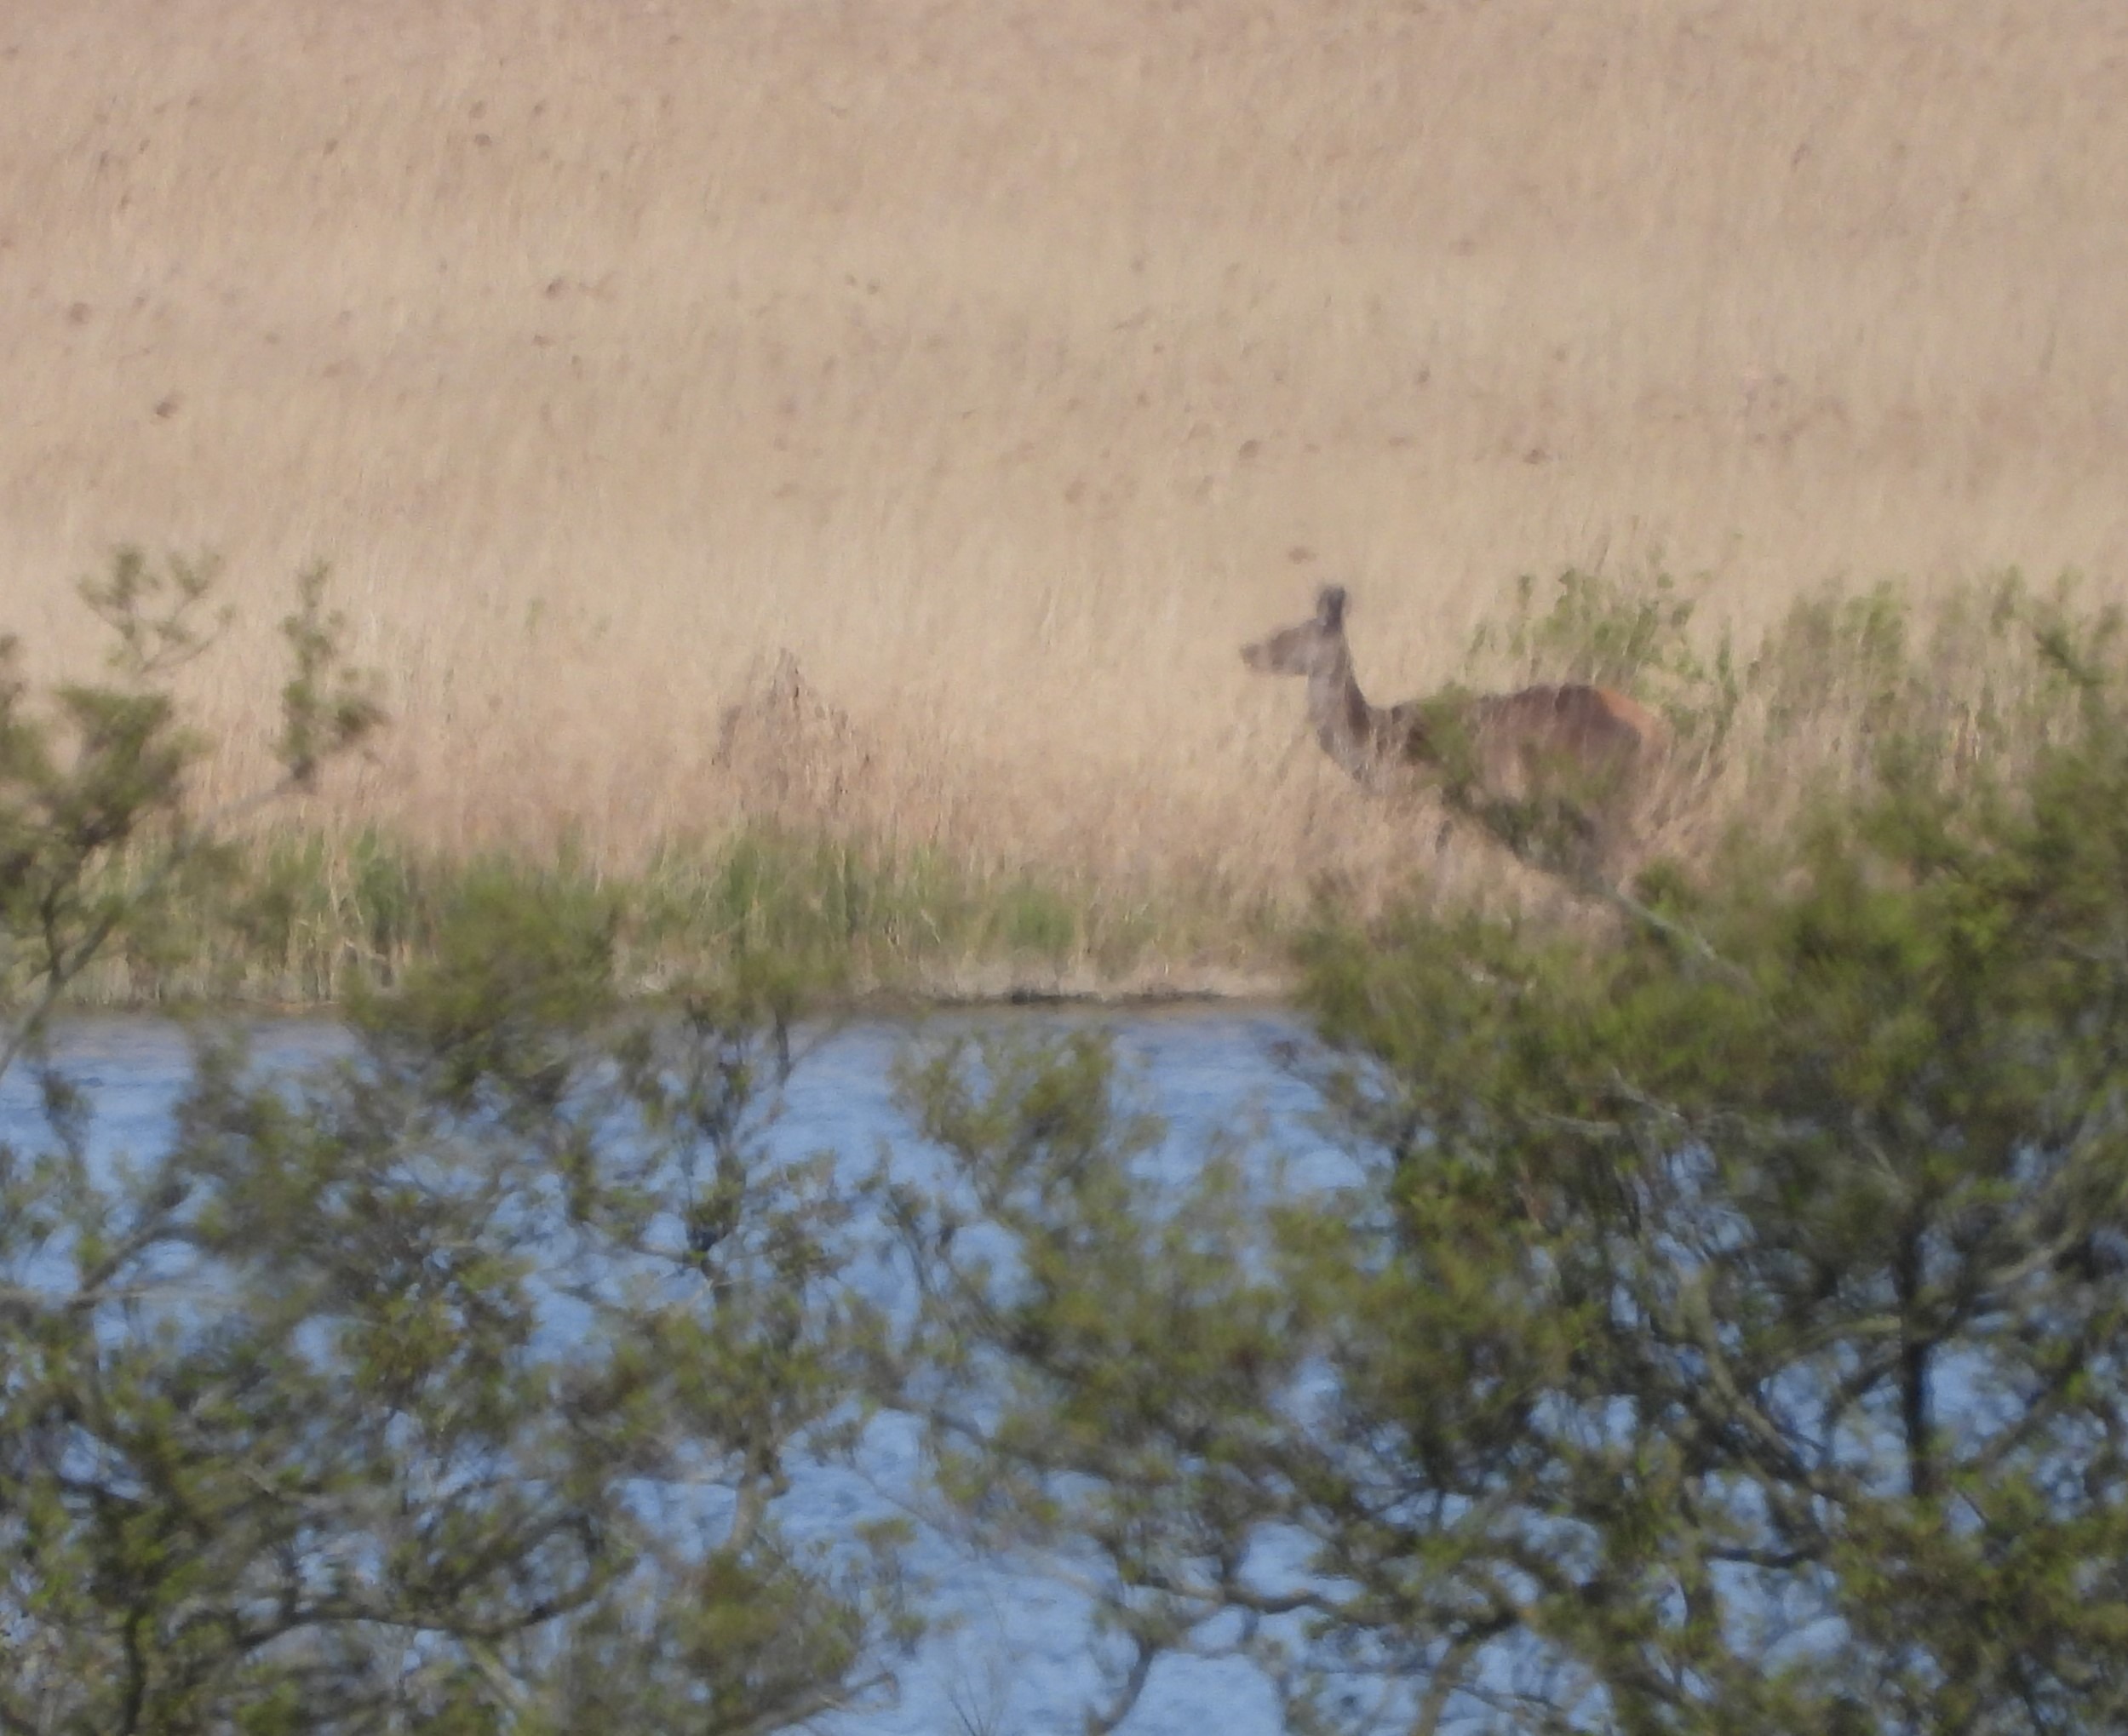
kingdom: Animalia
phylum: Chordata
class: Mammalia
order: Artiodactyla
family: Cervidae
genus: Cervus
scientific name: Cervus elaphus
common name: Krondyr
